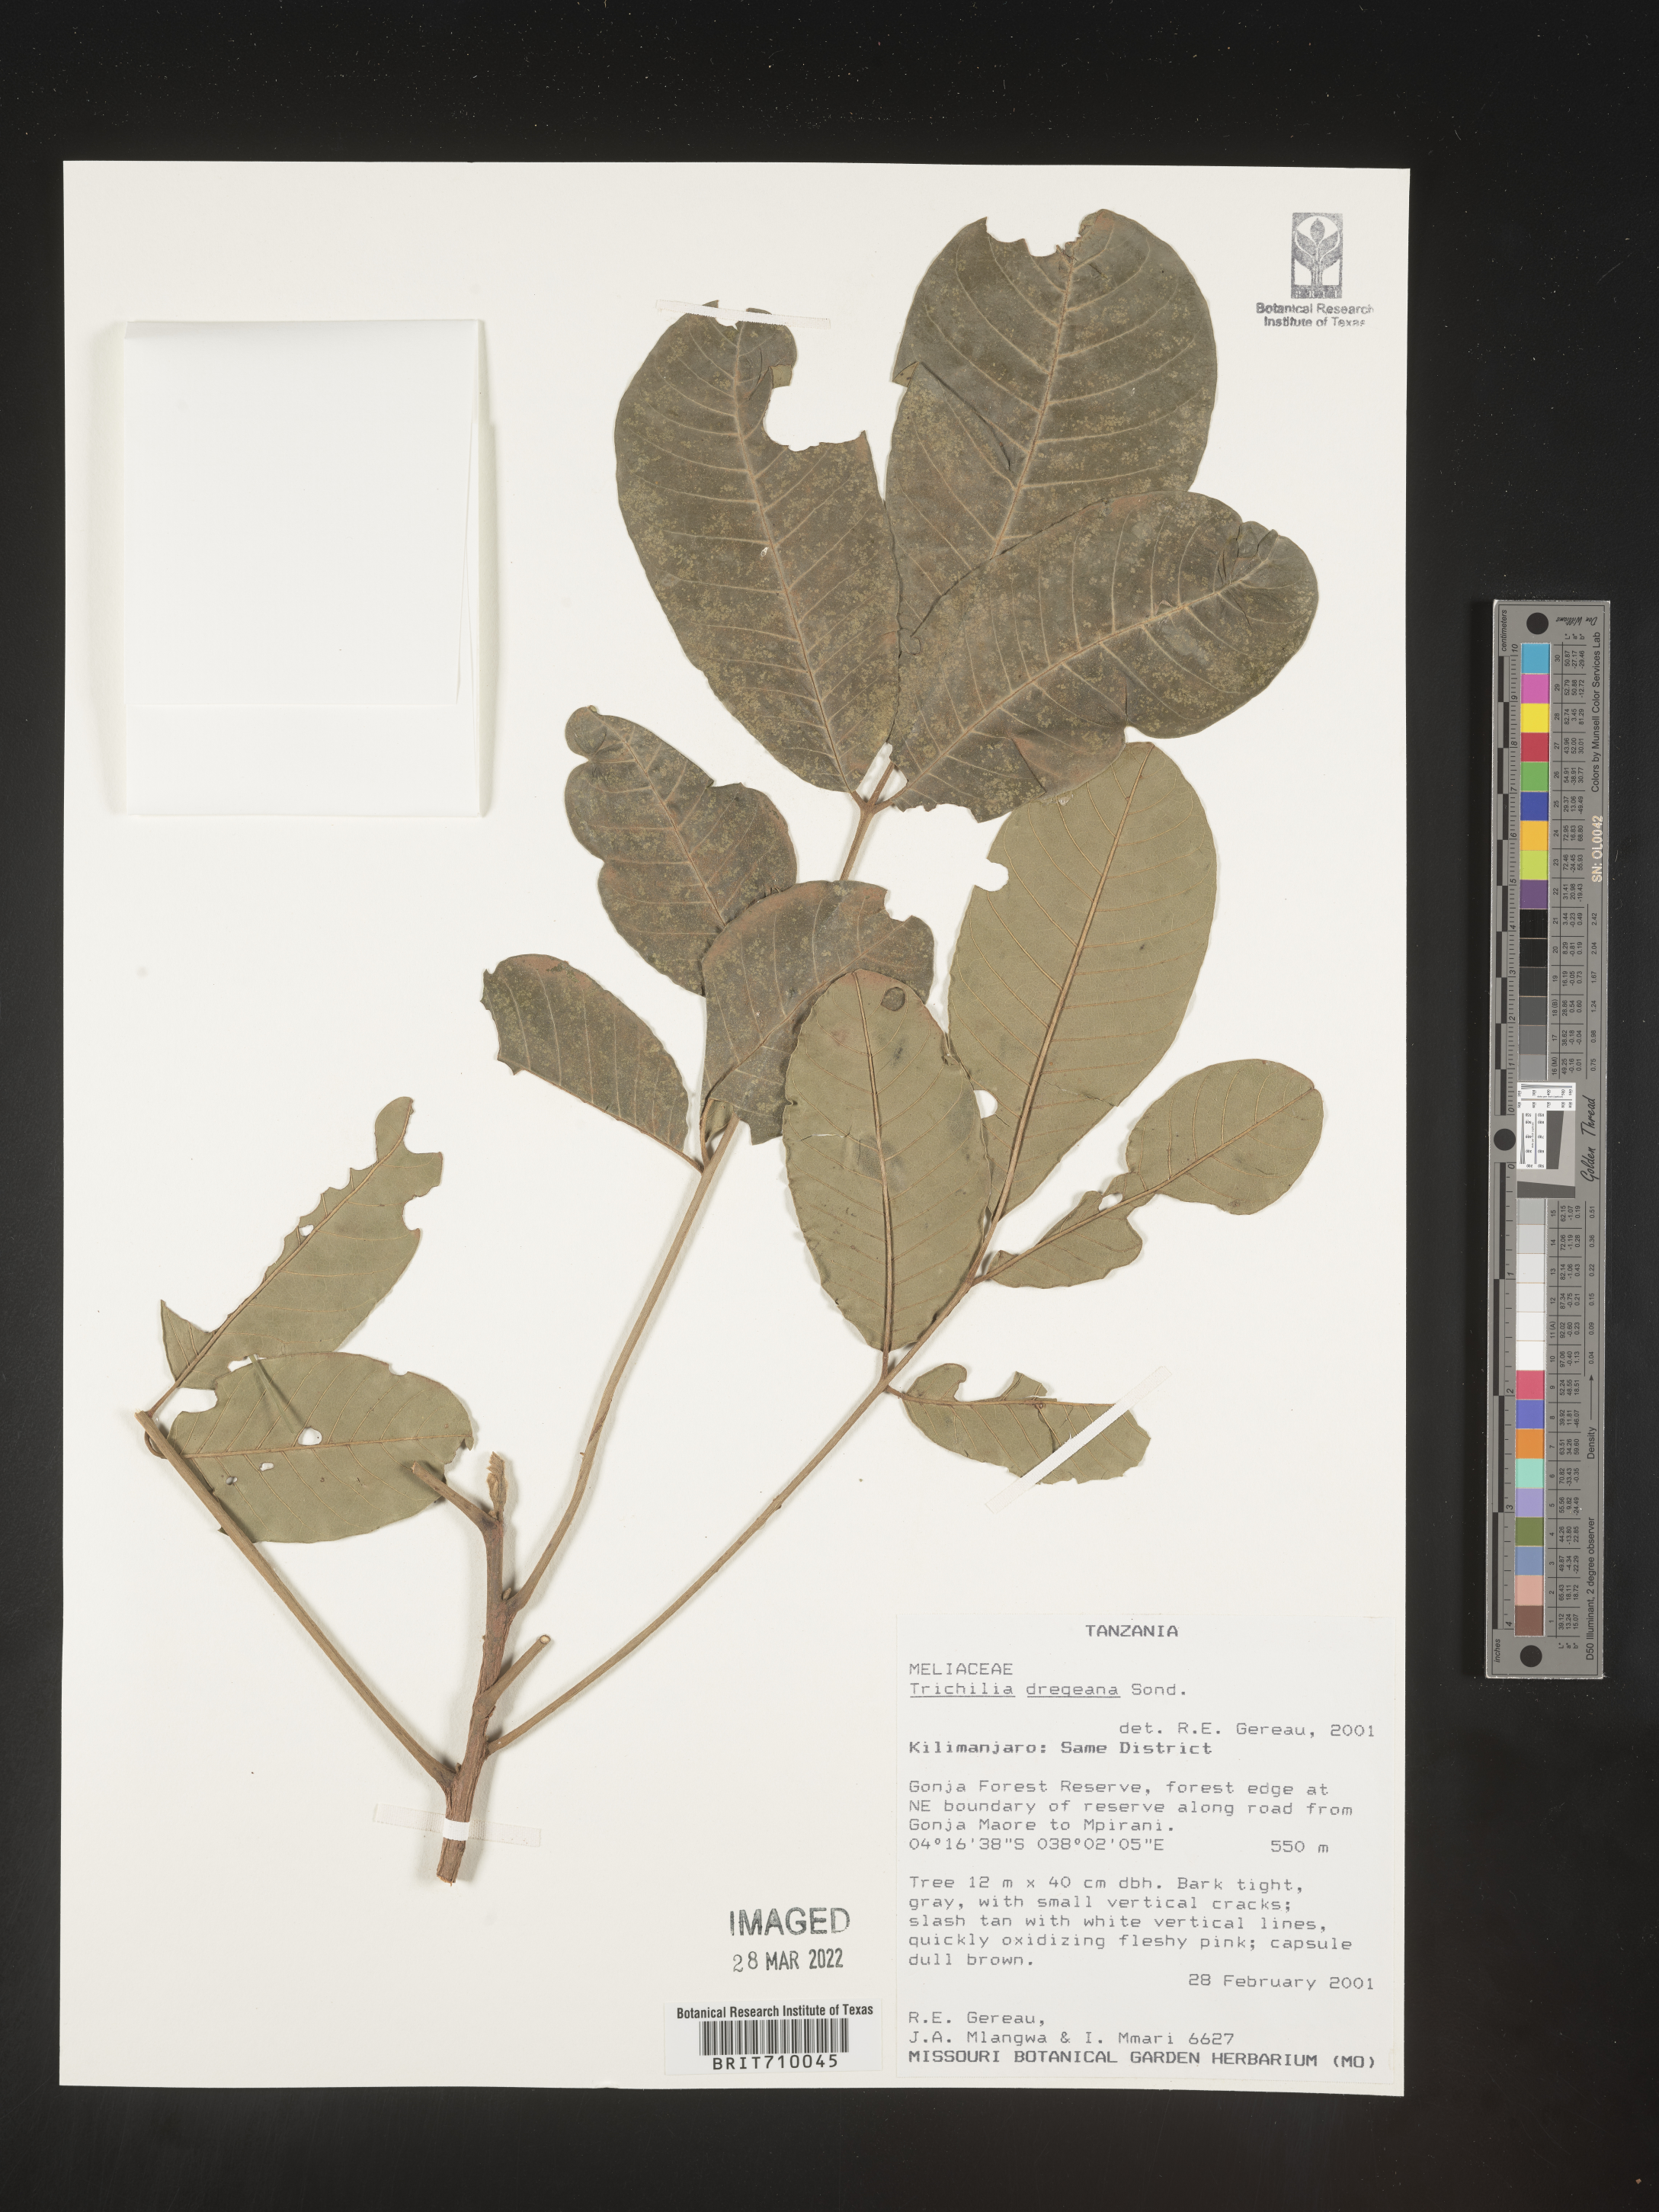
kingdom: Plantae
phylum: Tracheophyta
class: Magnoliopsida
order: Sapindales
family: Meliaceae
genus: Trichilia
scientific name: Trichilia
